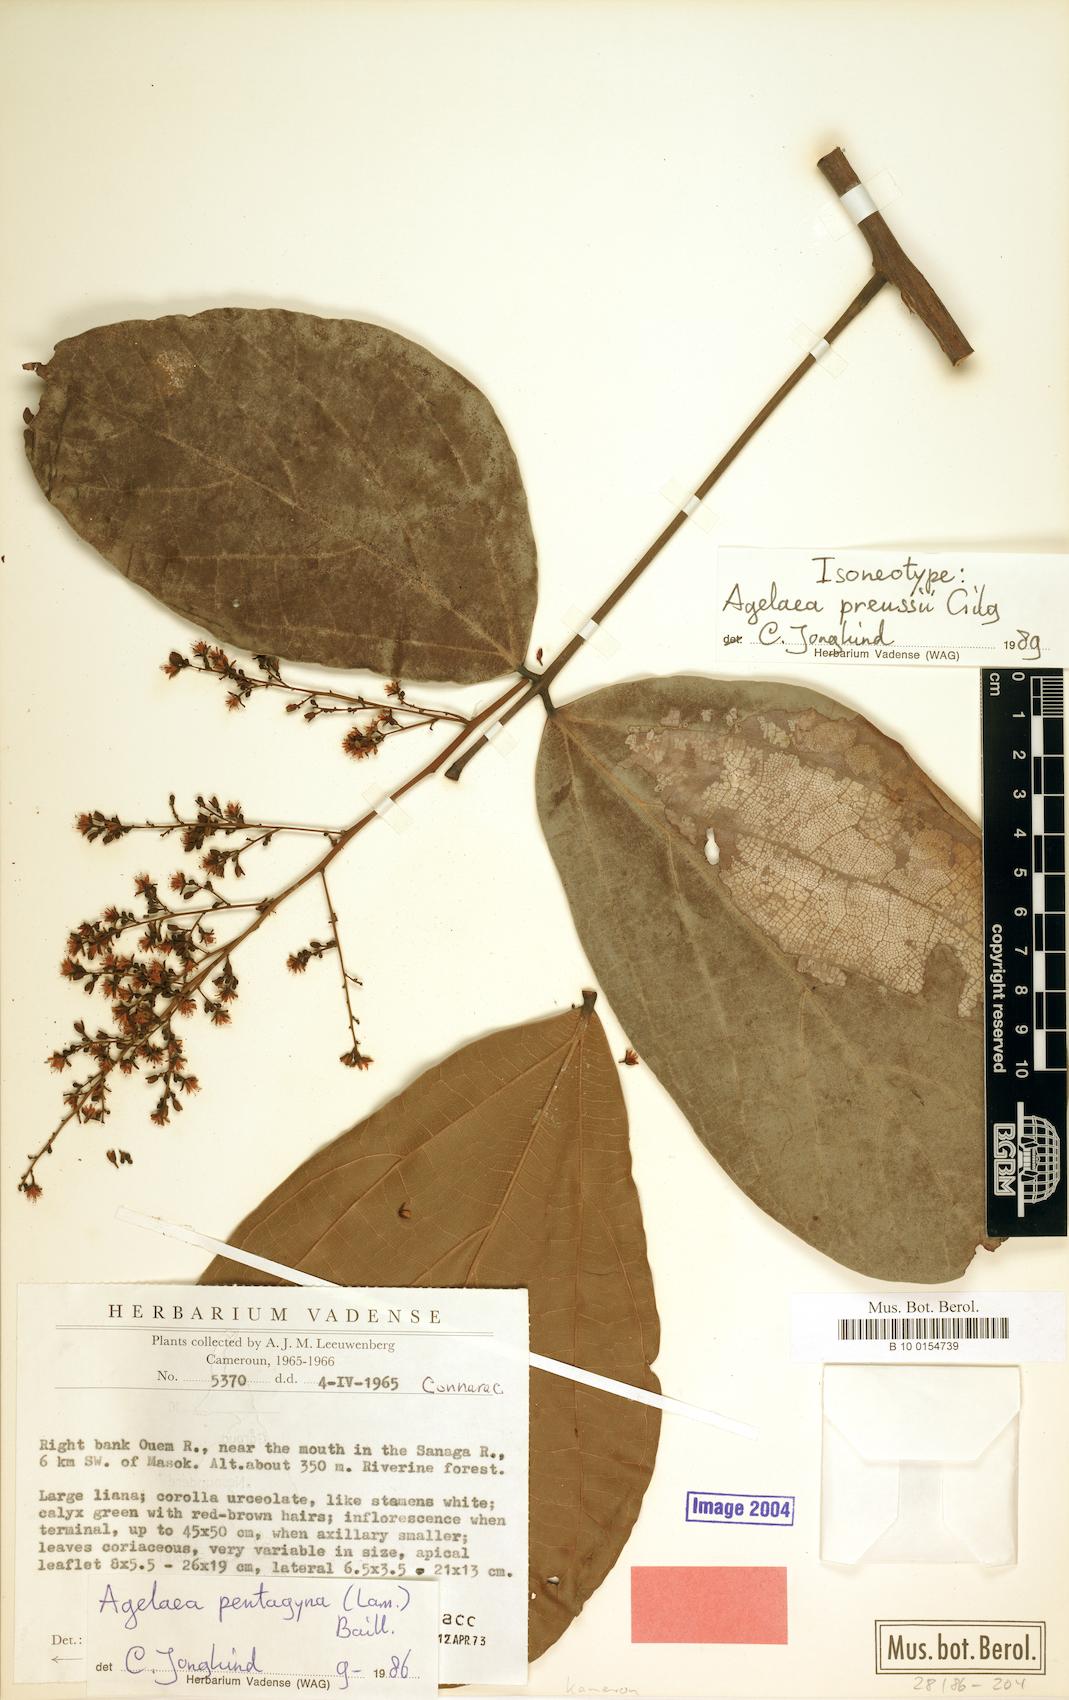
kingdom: Plantae
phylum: Tracheophyta
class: Magnoliopsida
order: Oxalidales
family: Connaraceae
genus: Agelaea
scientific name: Agelaea pentagyna
